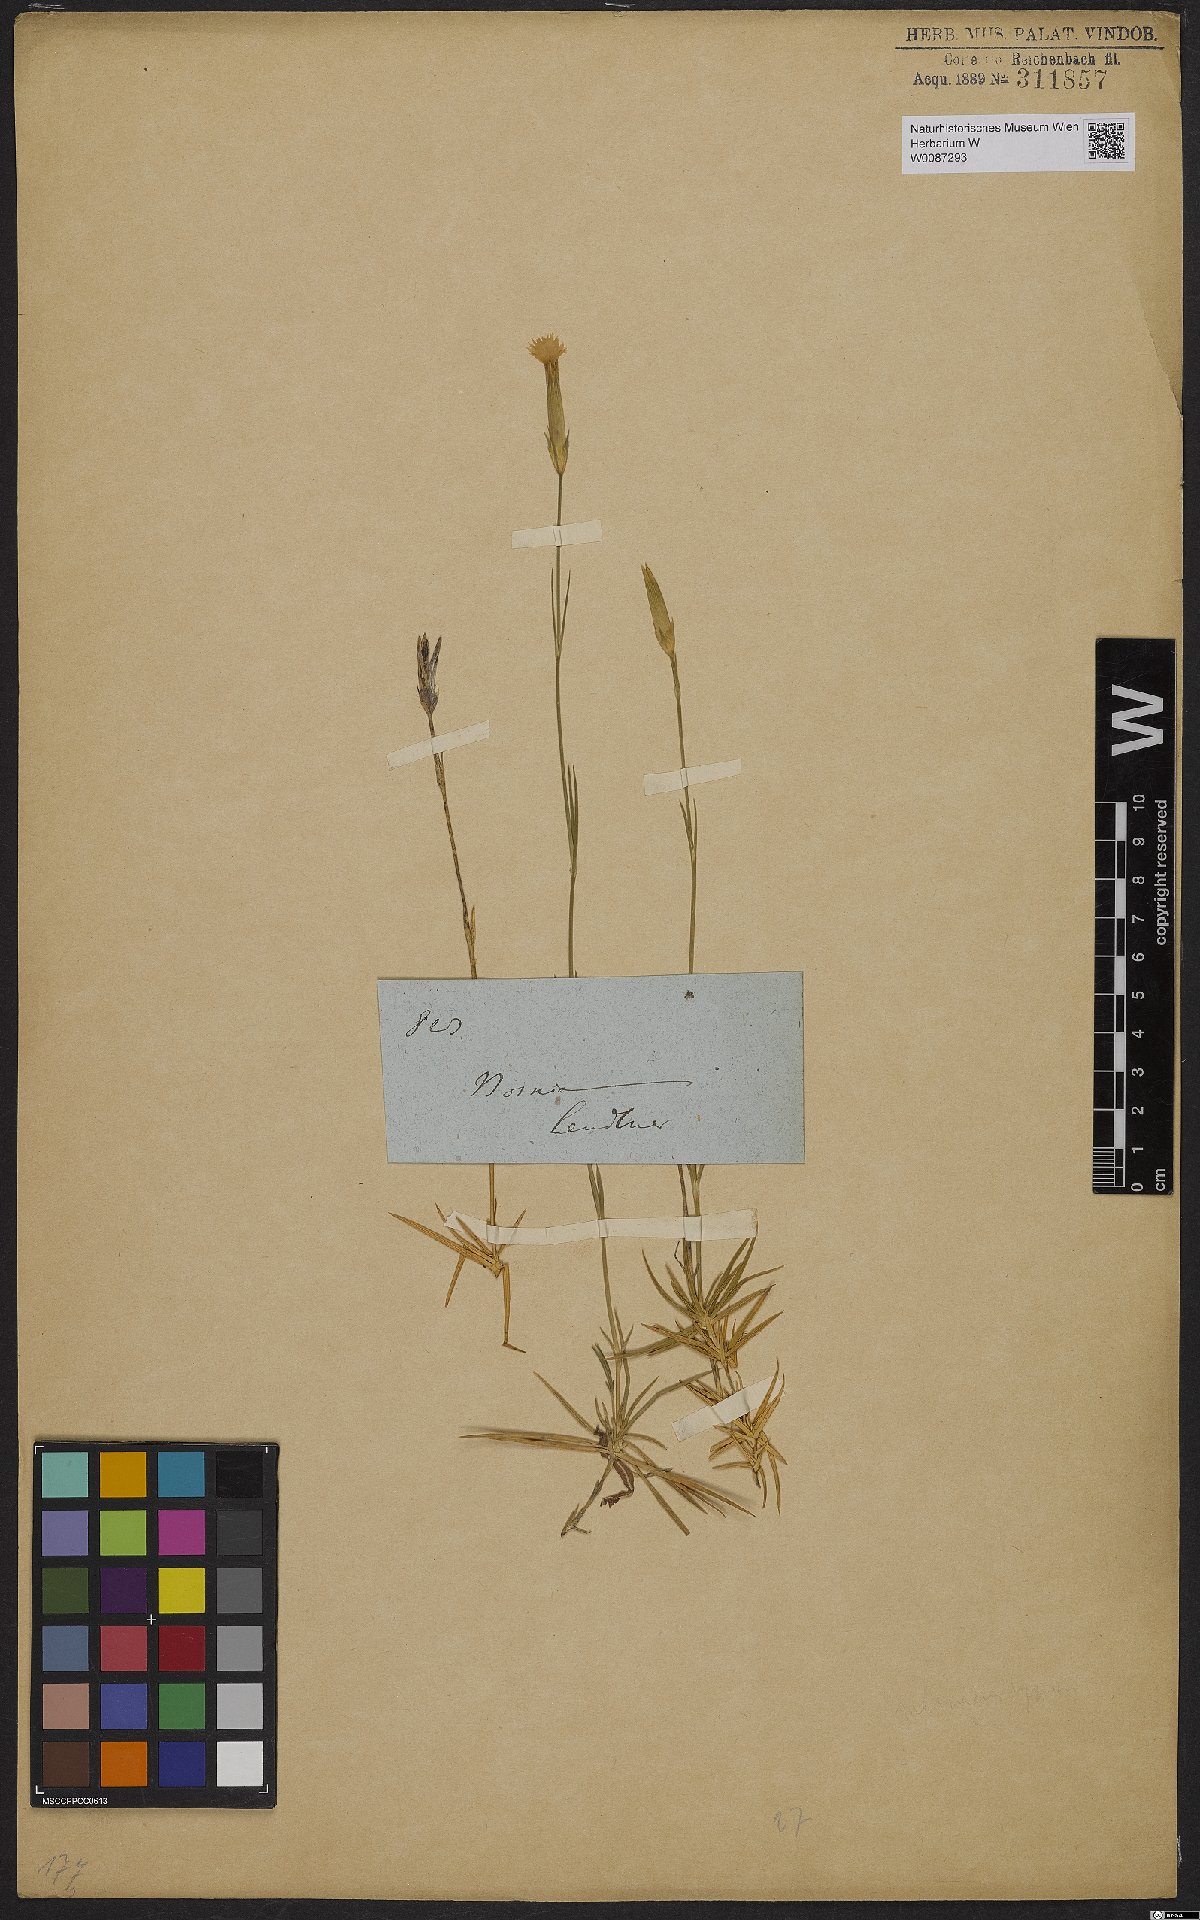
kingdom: Plantae
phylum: Tracheophyta
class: Magnoliopsida
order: Caryophyllales
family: Caryophyllaceae
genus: Dianthus
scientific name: Dianthus petraeus
